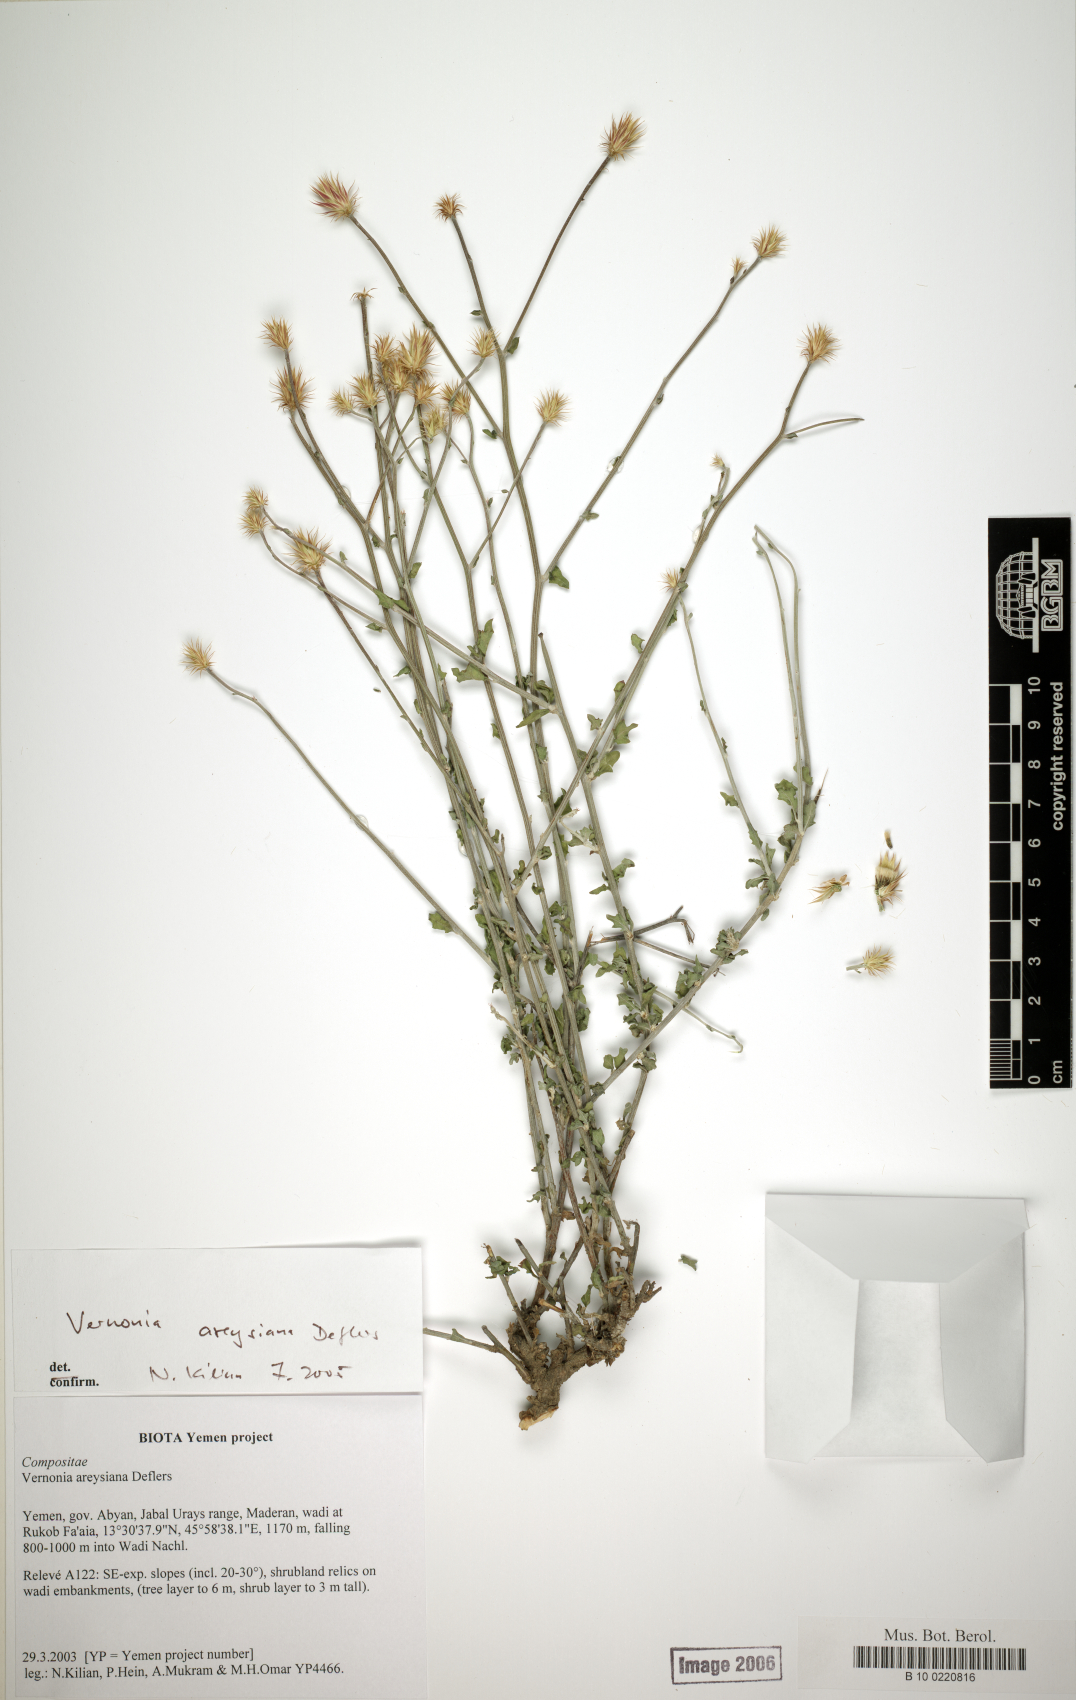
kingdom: Plantae
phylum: Tracheophyta
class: Magnoliopsida
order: Asterales
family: Asteraceae
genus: Vernonia
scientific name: Vernonia areysiana
